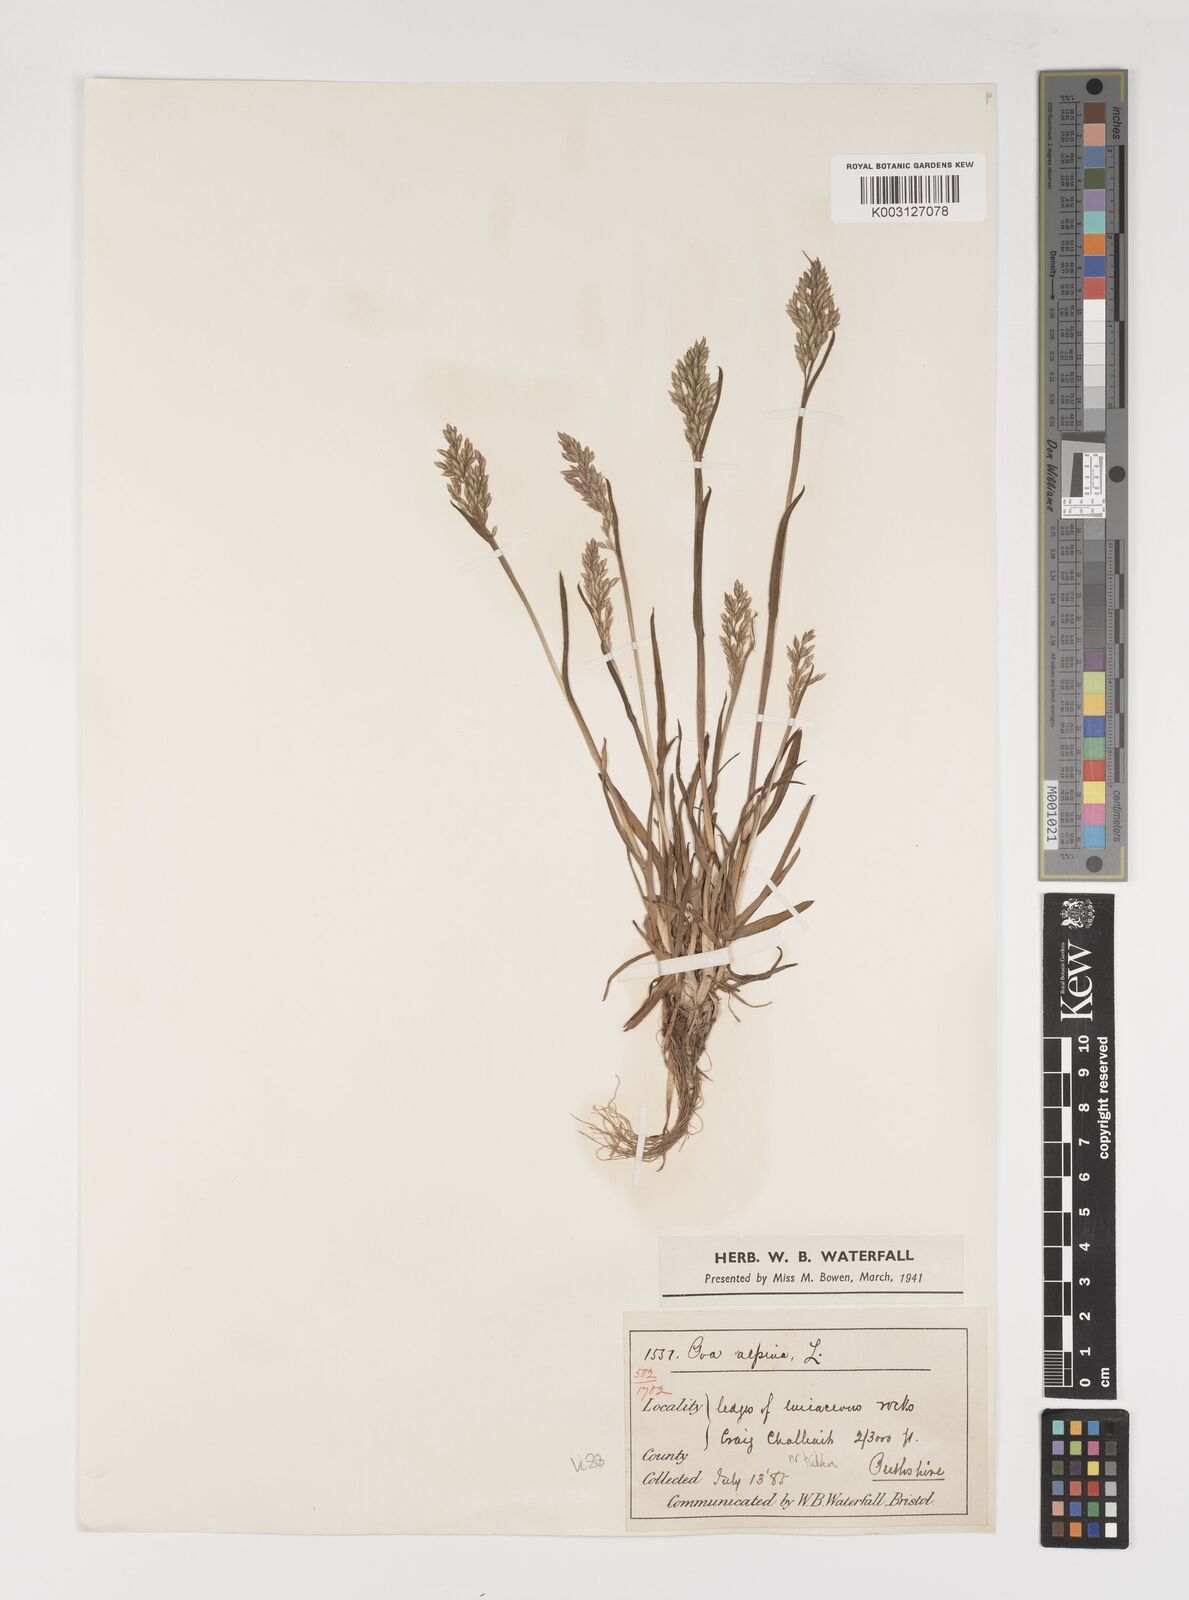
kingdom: Plantae
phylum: Tracheophyta
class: Liliopsida
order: Poales
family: Poaceae
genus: Poa
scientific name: Poa alpina
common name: Alpine bluegrass
